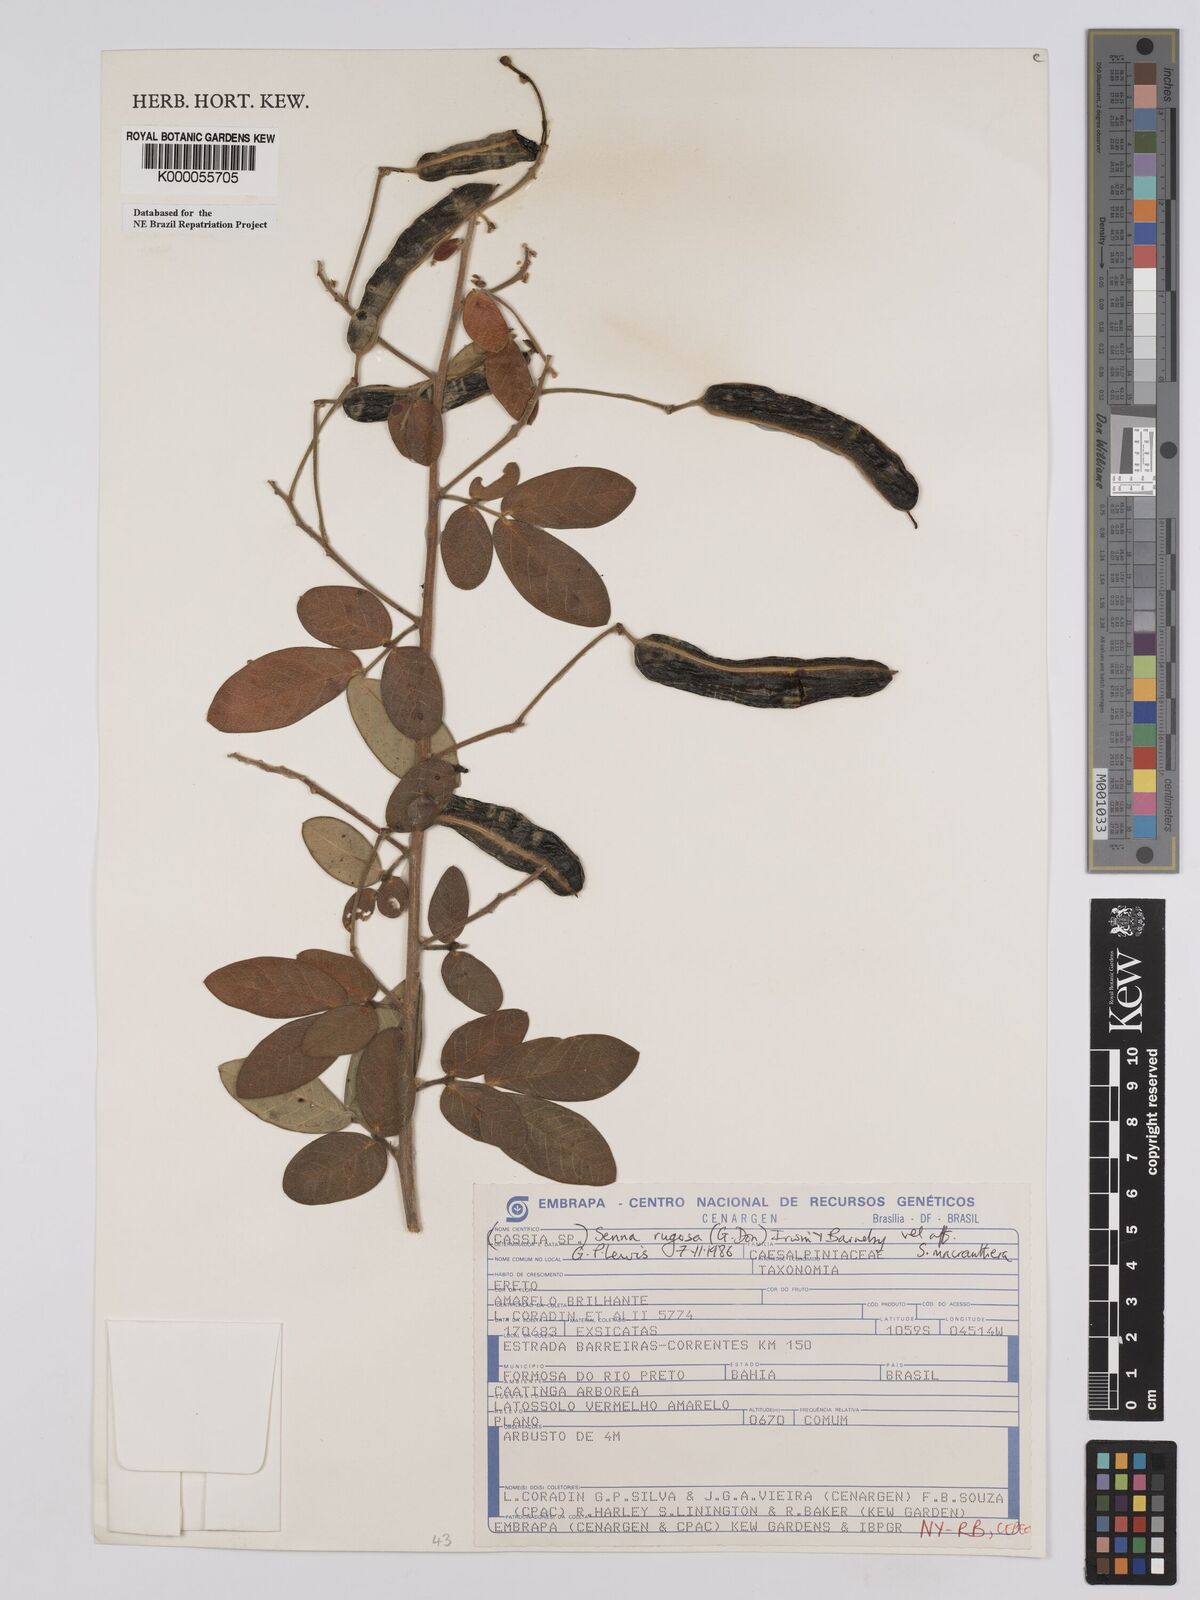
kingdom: Plantae
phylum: Tracheophyta
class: Magnoliopsida
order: Fabales
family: Fabaceae
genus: Senna
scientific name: Senna rugosa
